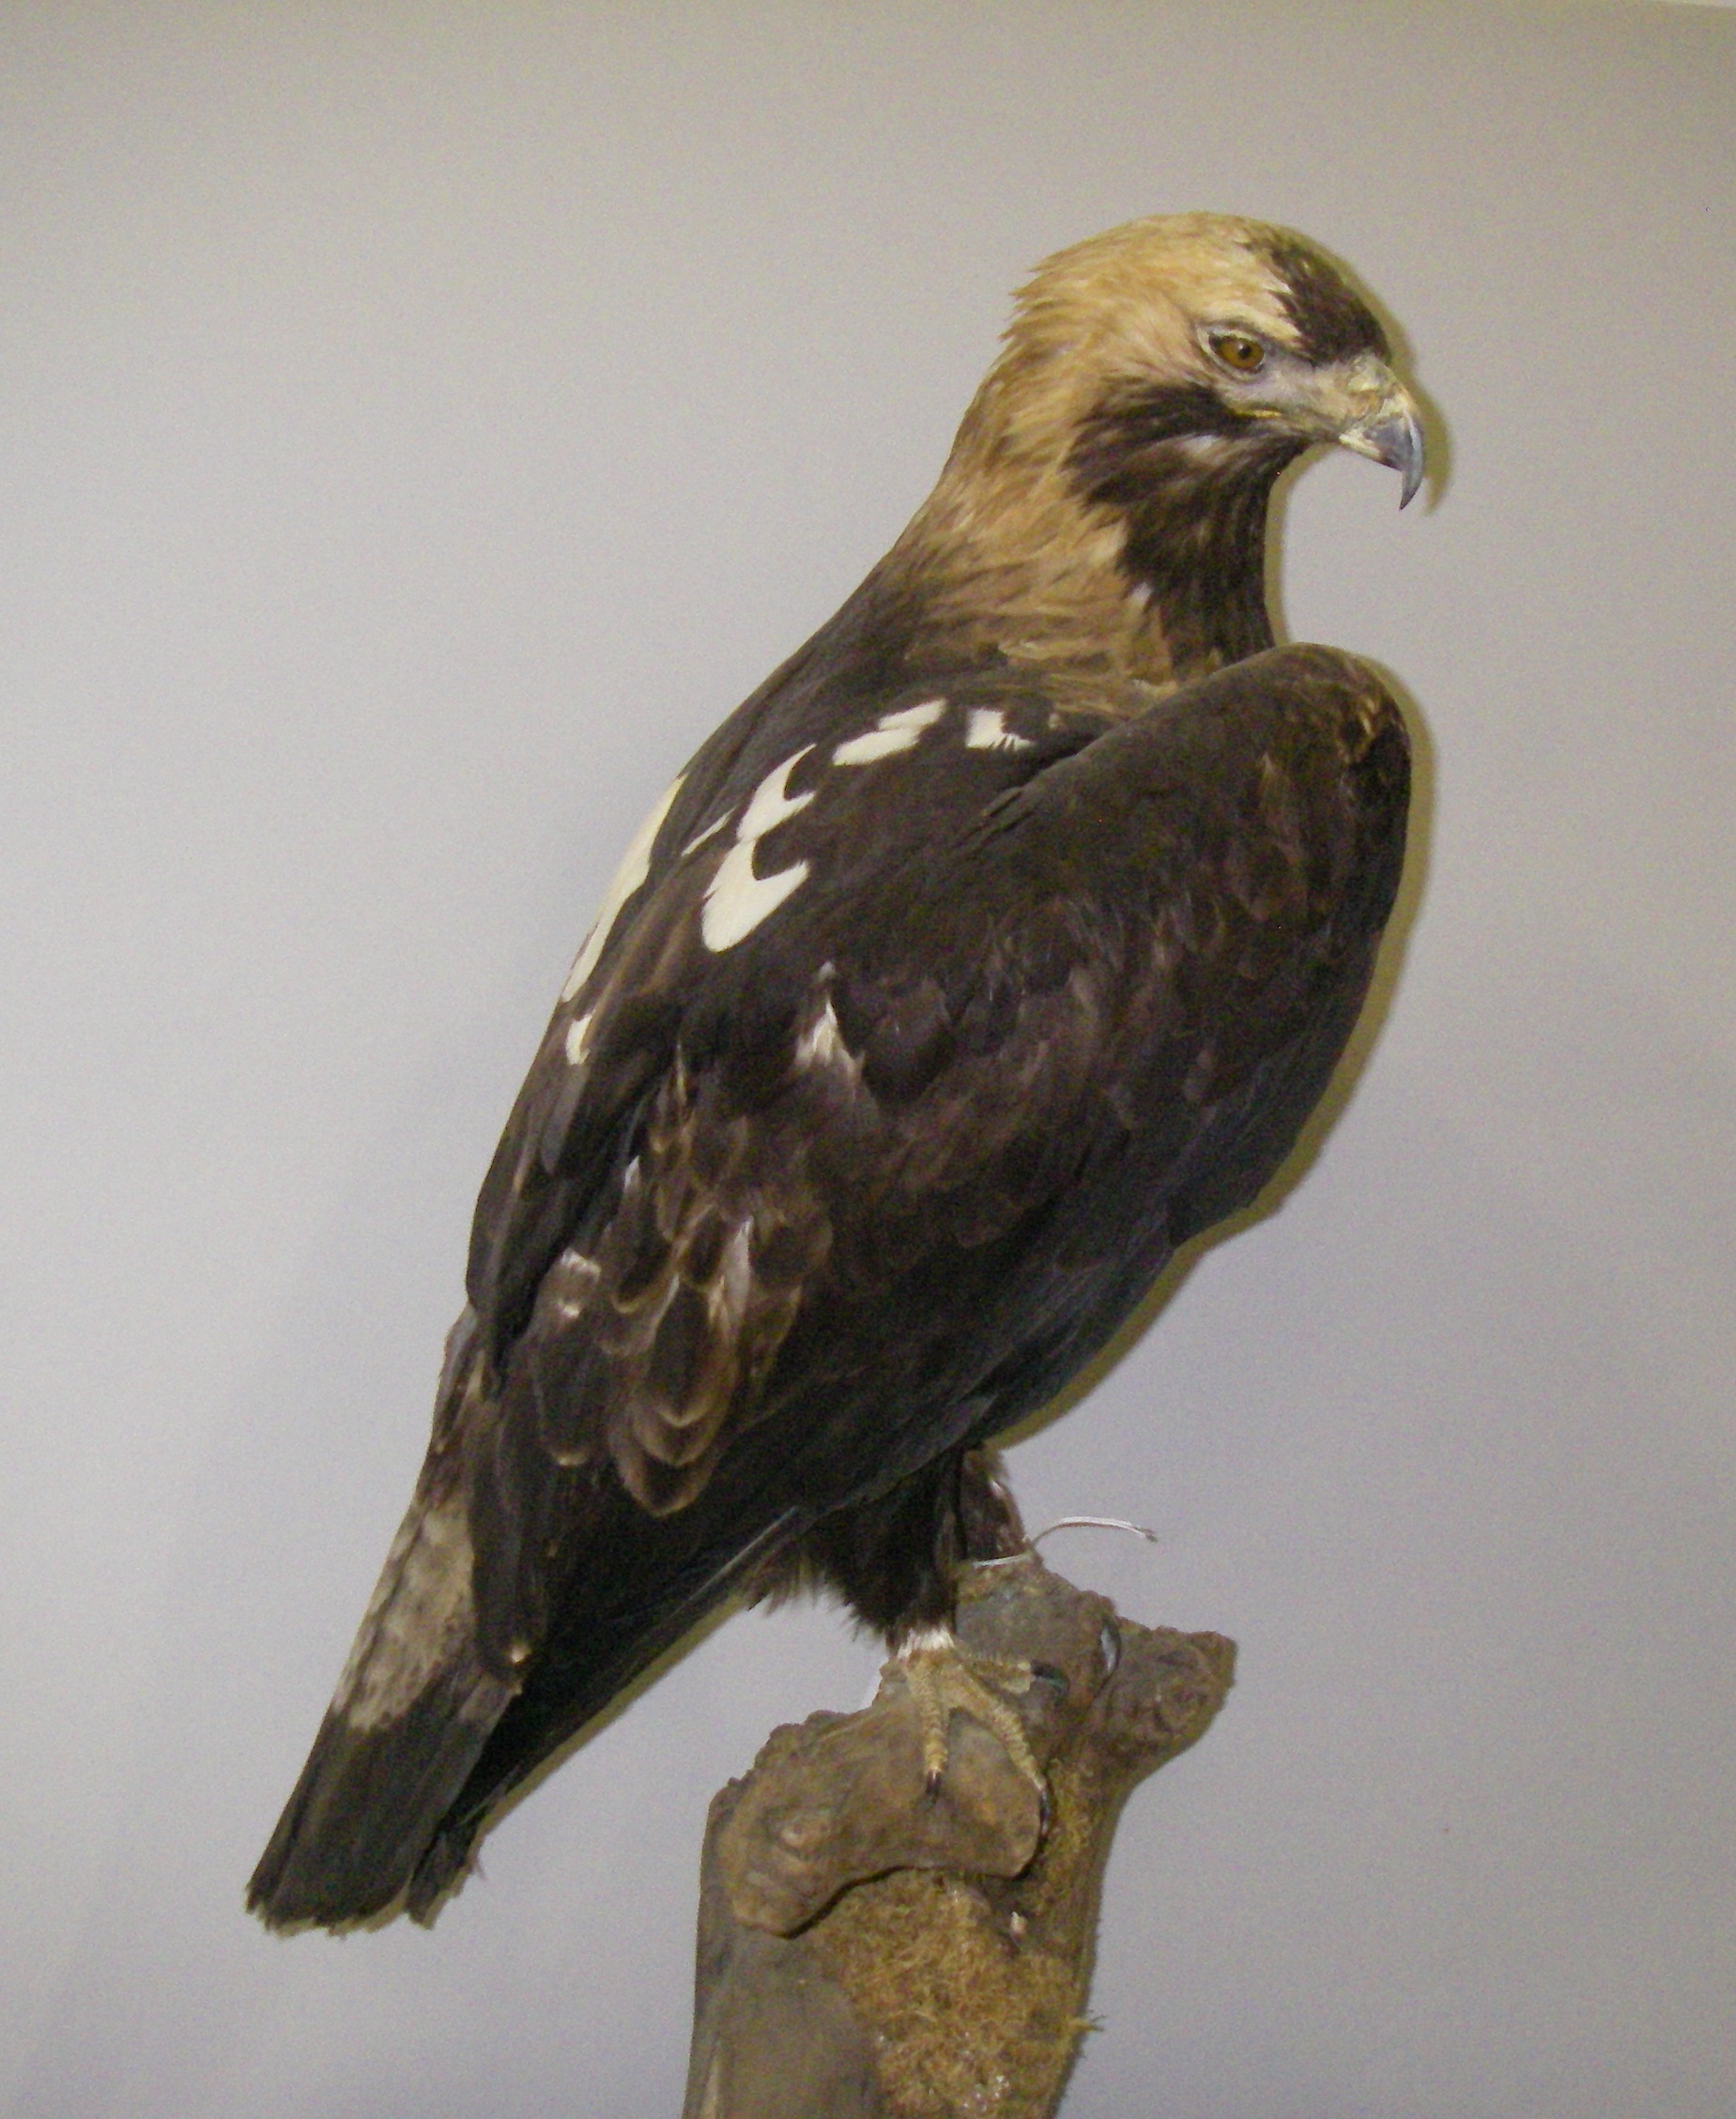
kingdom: Animalia
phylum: Chordata
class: Aves
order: Accipitriformes
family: Accipitridae
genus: Aquila
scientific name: Aquila heliaca
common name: Eastern imperial eagle
